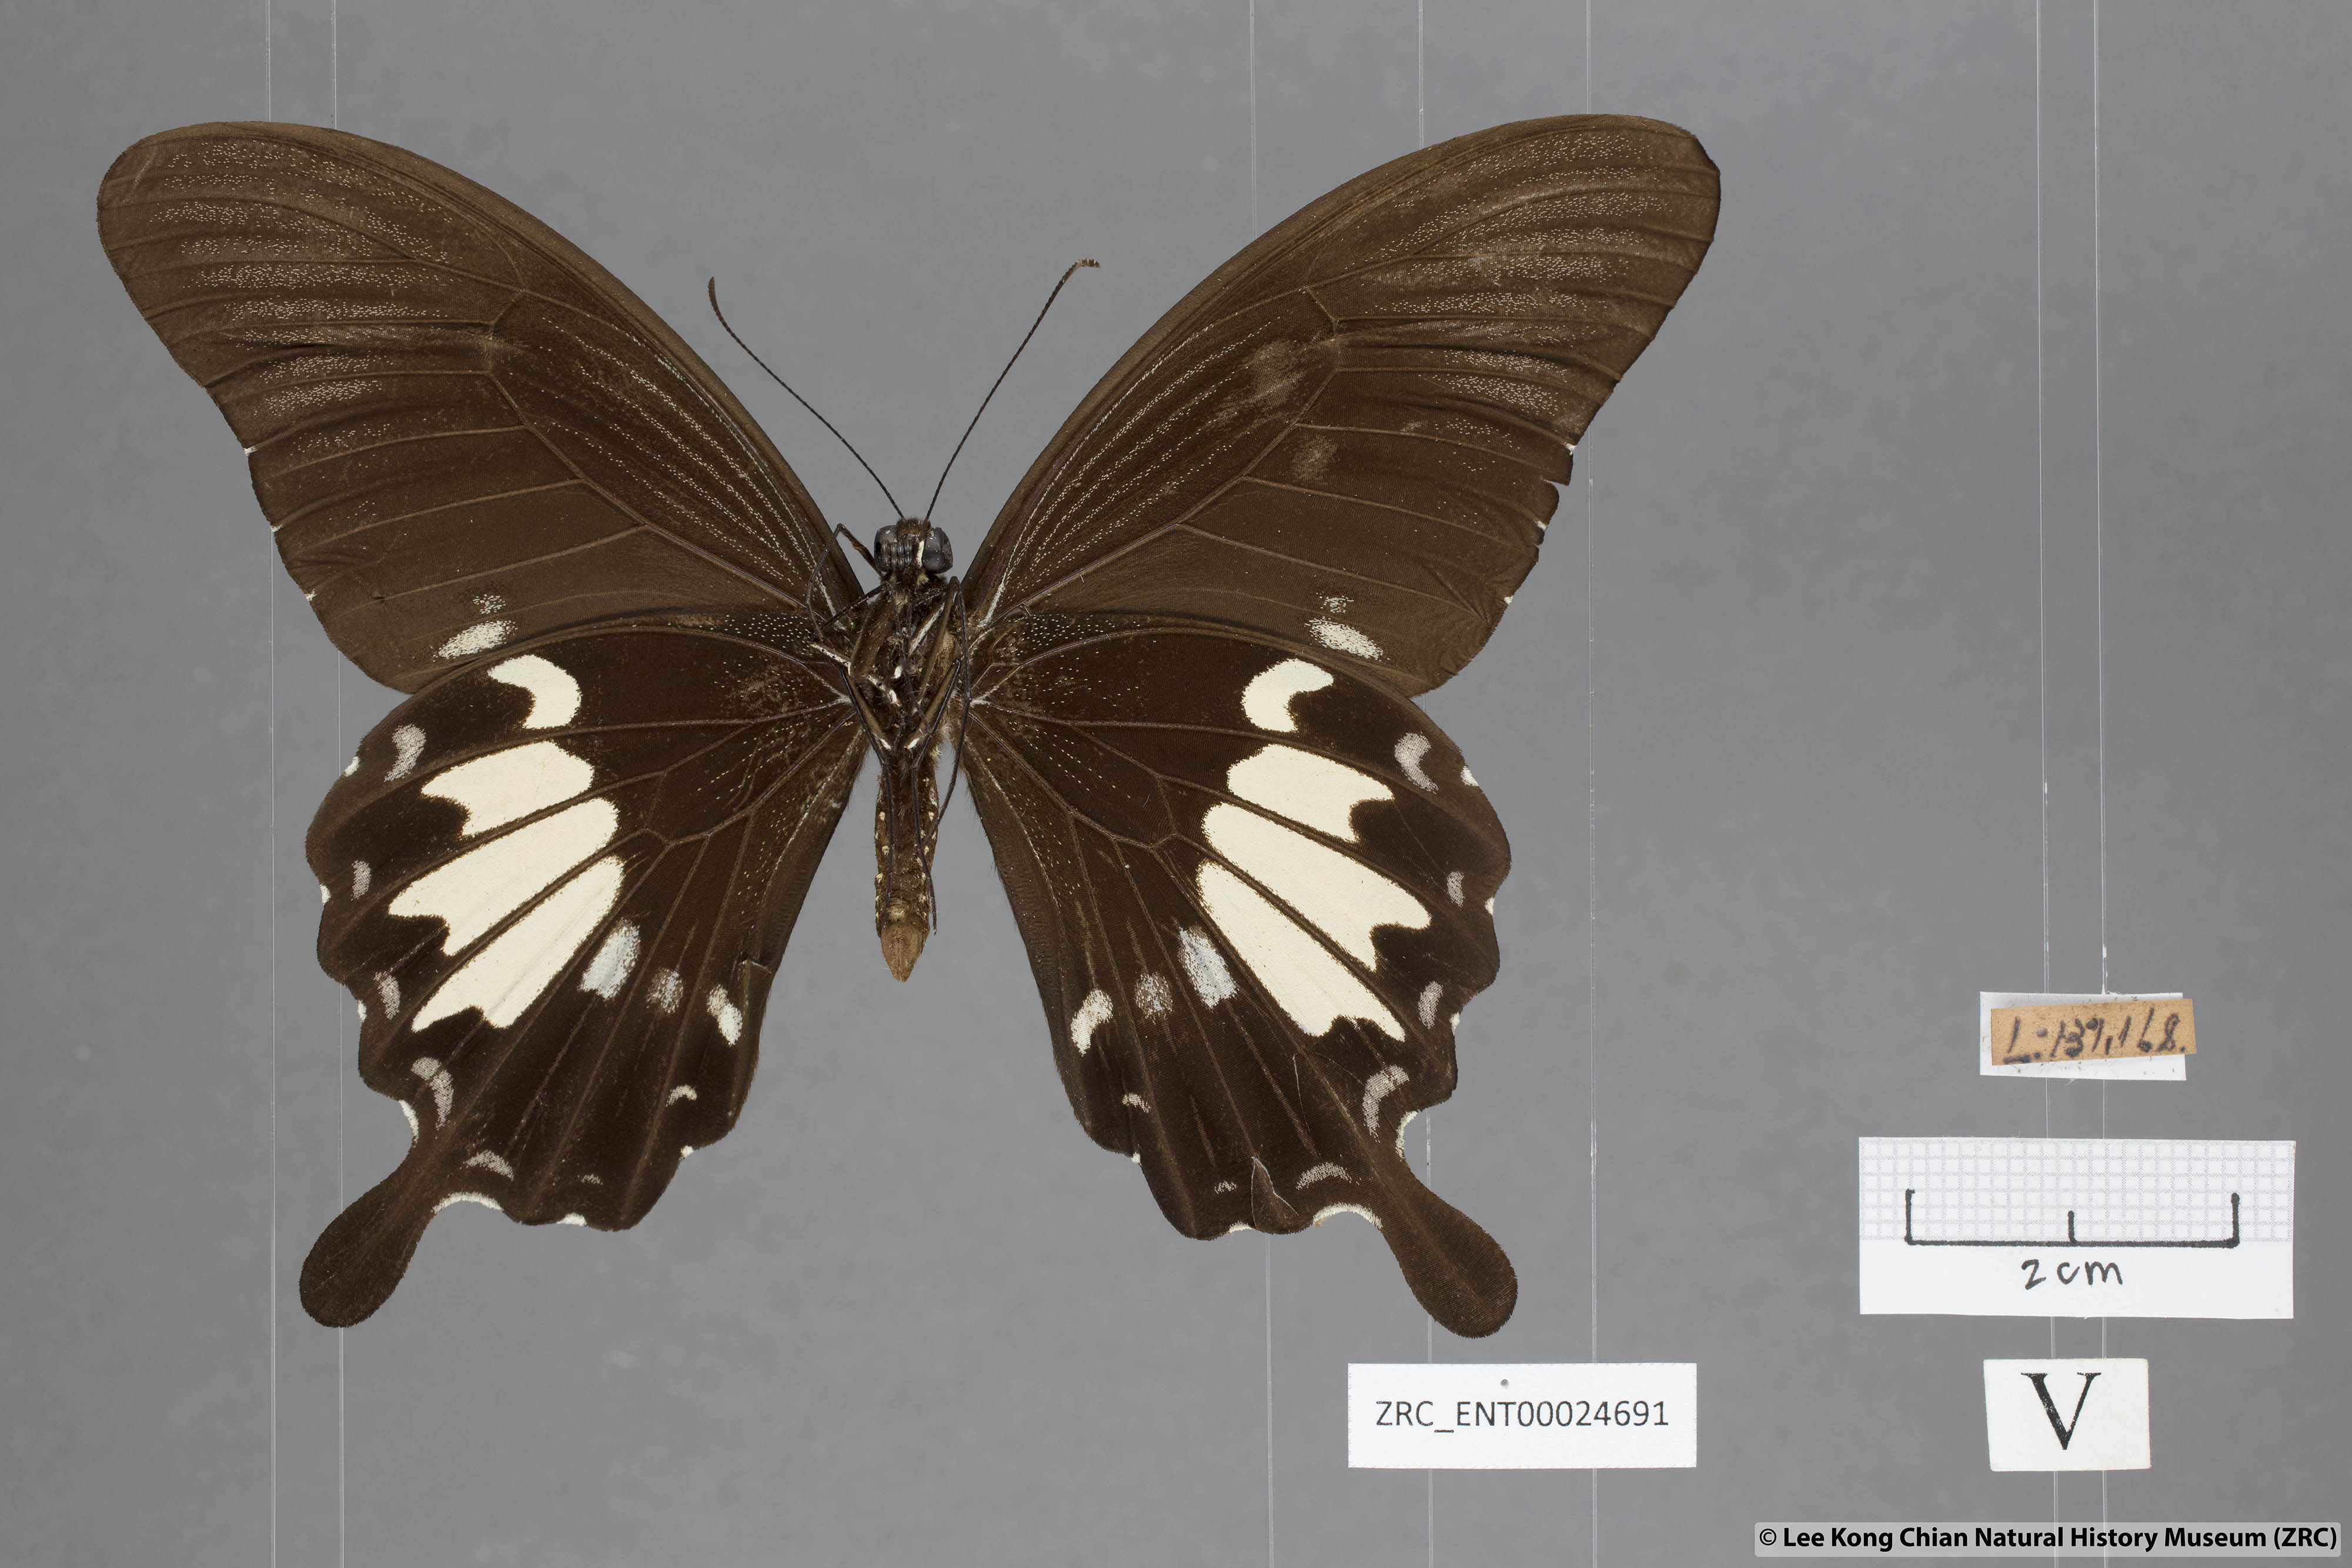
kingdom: Animalia
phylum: Arthropoda
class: Insecta
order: Lepidoptera
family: Papilionidae
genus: Papilio
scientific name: Papilio nephelus
